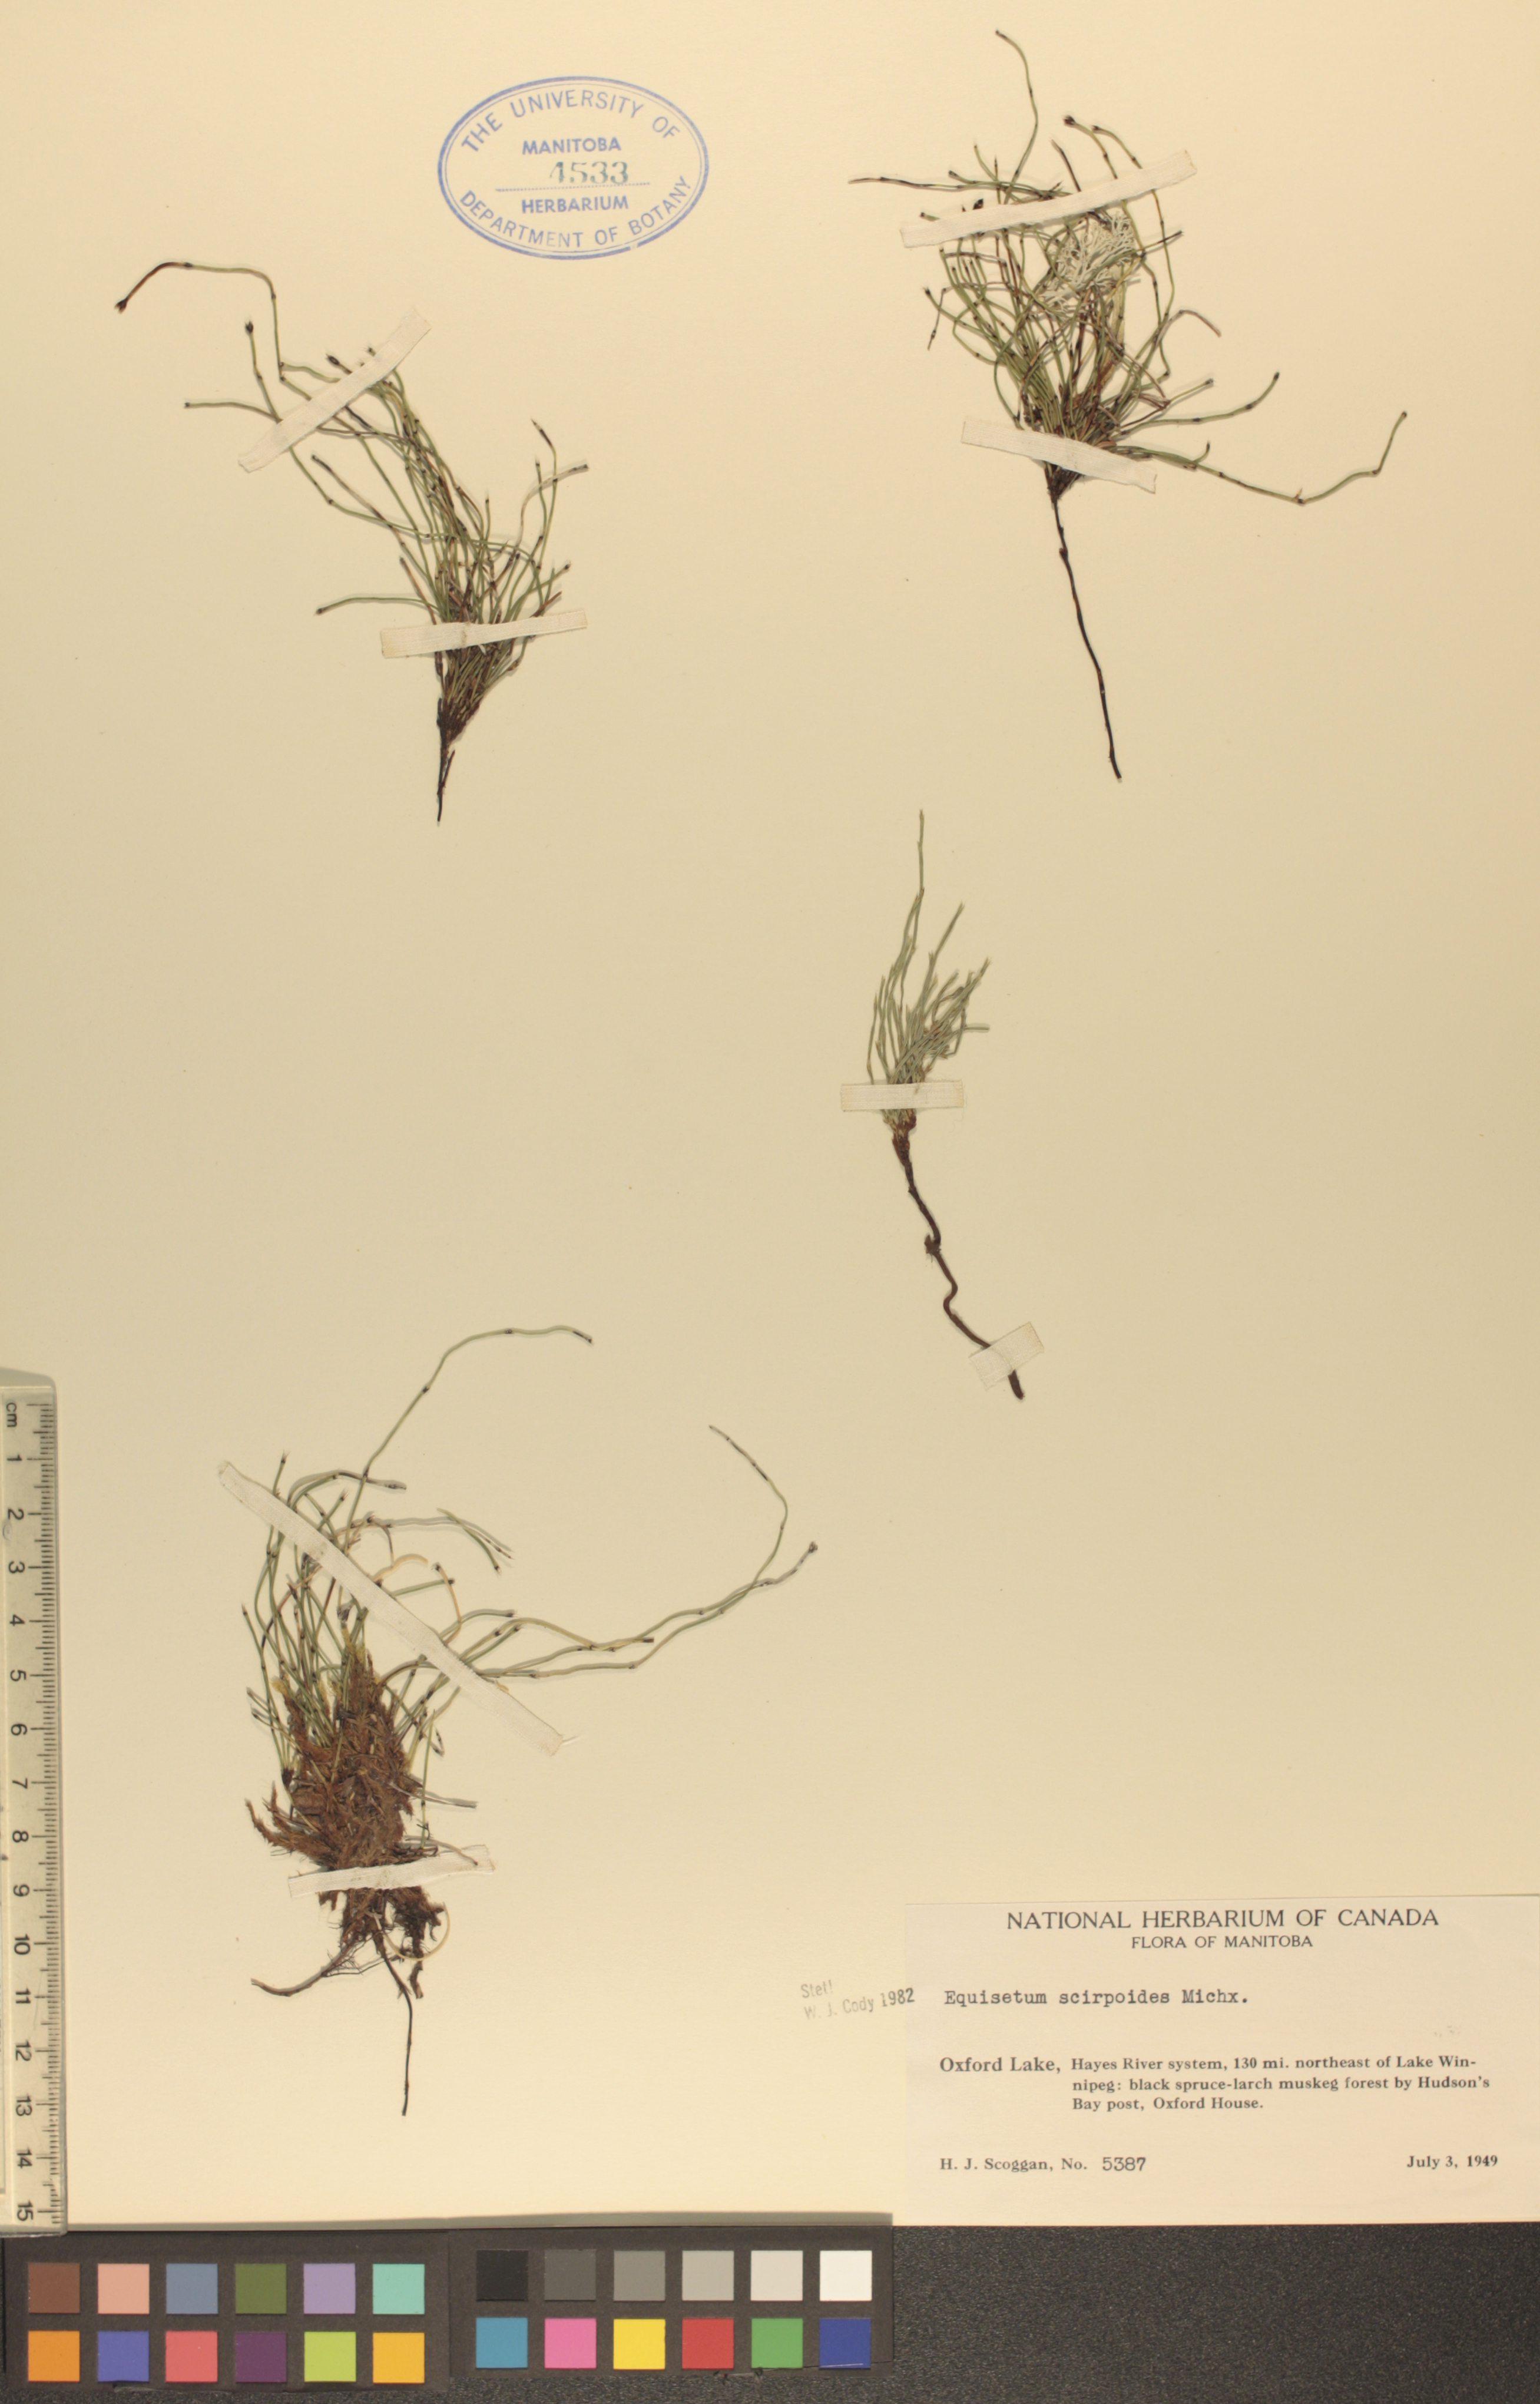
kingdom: Plantae
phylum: Tracheophyta
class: Polypodiopsida
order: Equisetales
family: Equisetaceae
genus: Equisetum
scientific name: Equisetum scirpoides
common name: Delicate horsetail
